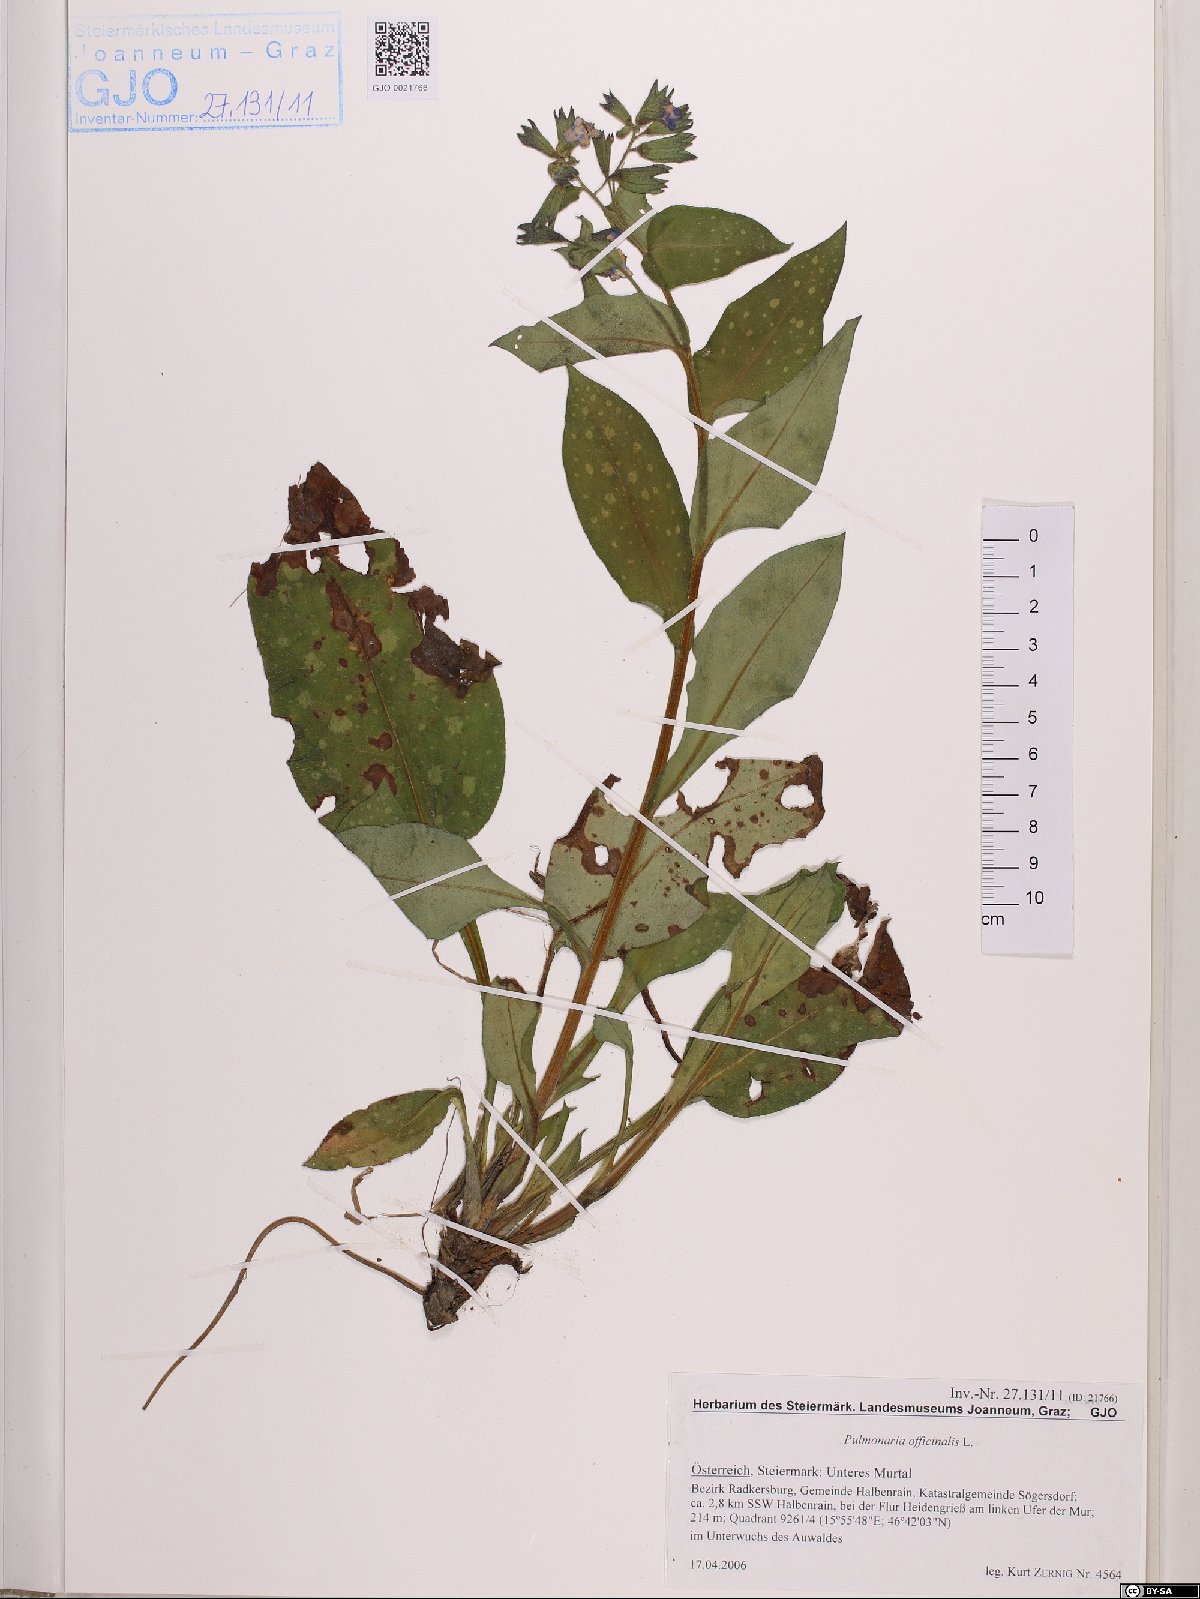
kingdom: Plantae
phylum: Tracheophyta
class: Magnoliopsida
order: Boraginales
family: Boraginaceae
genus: Pulmonaria
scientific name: Pulmonaria officinalis
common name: Lungwort
